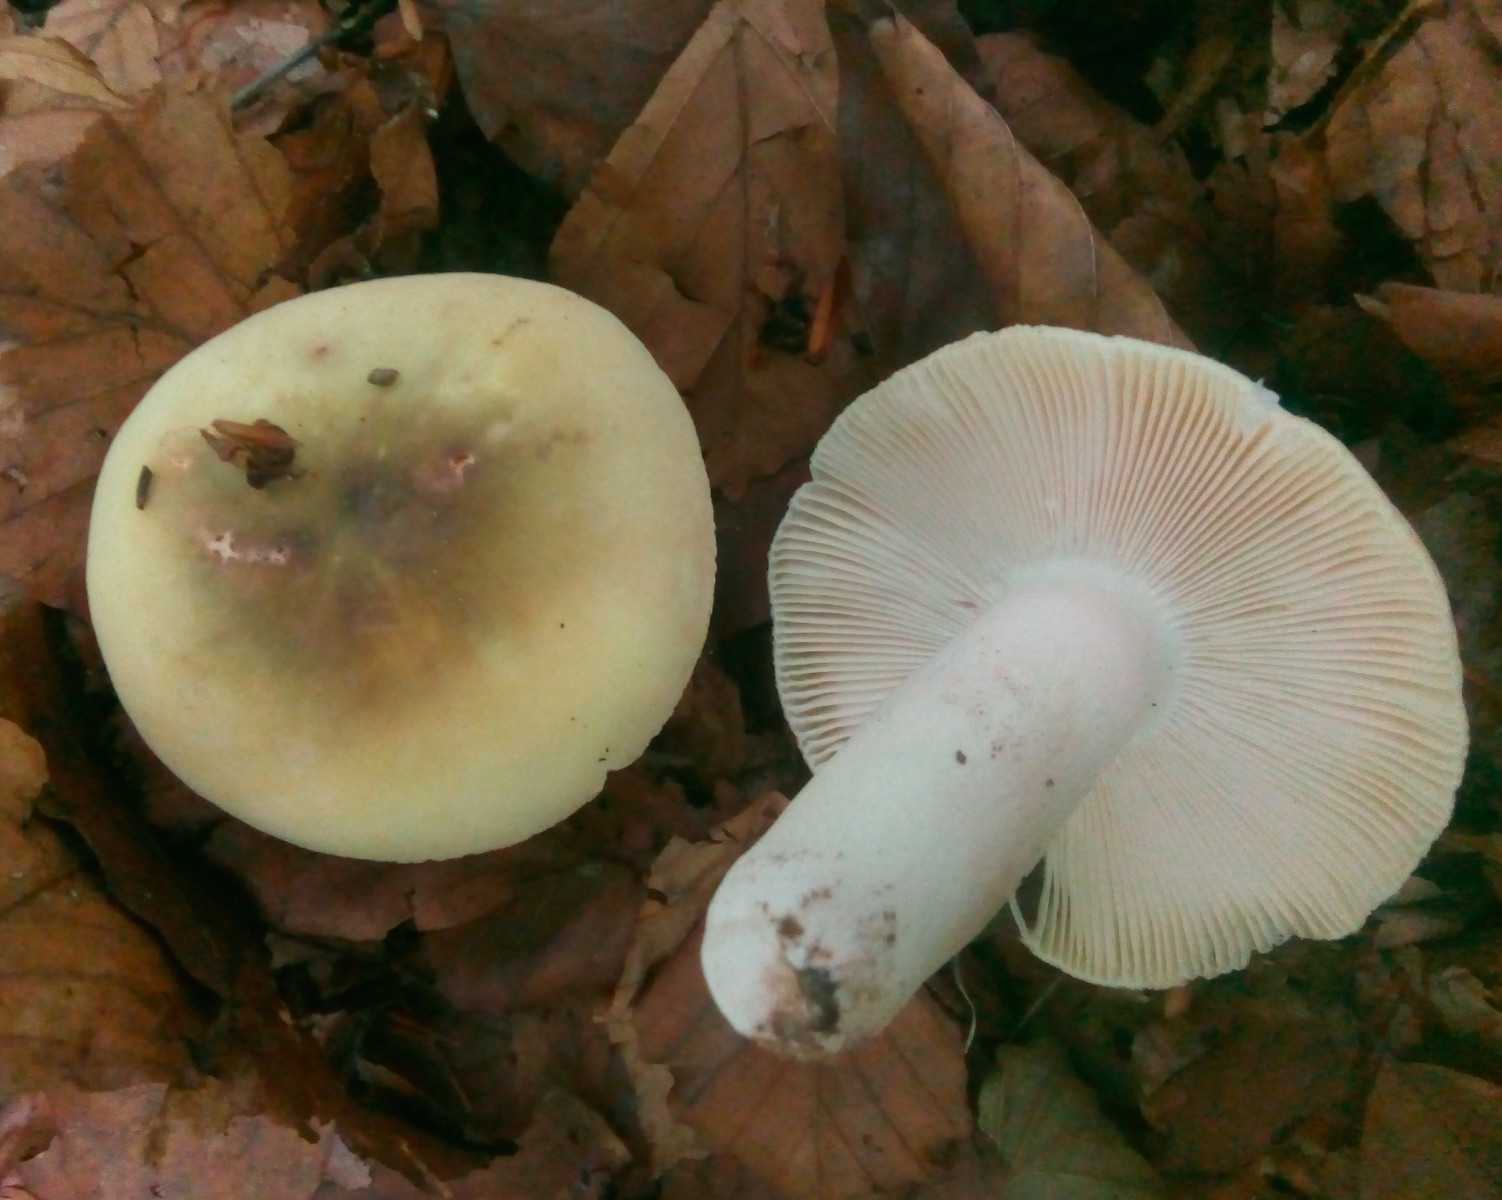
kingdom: Fungi
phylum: Basidiomycota
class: Agaricomycetes
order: Russulales
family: Russulaceae
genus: Russula
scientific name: Russula violeipes
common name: ferskengul skørhat
